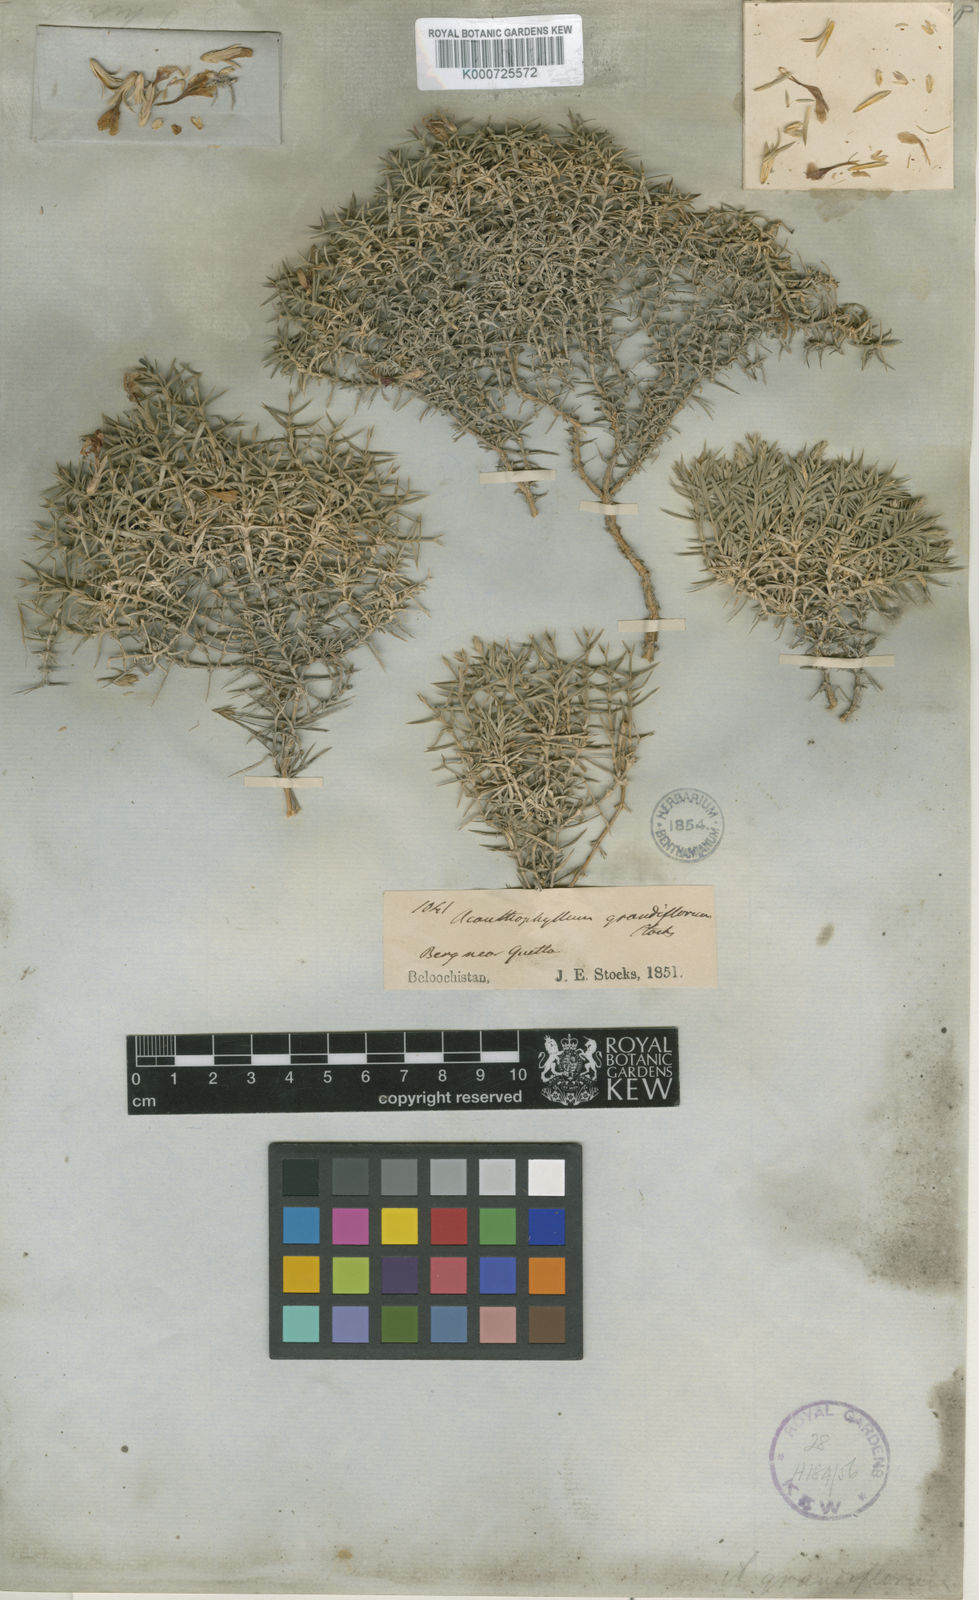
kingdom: Plantae
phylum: Tracheophyta
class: Magnoliopsida
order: Caryophyllales
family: Caryophyllaceae
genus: Acanthophyllum
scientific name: Acanthophyllum grandiflorum
